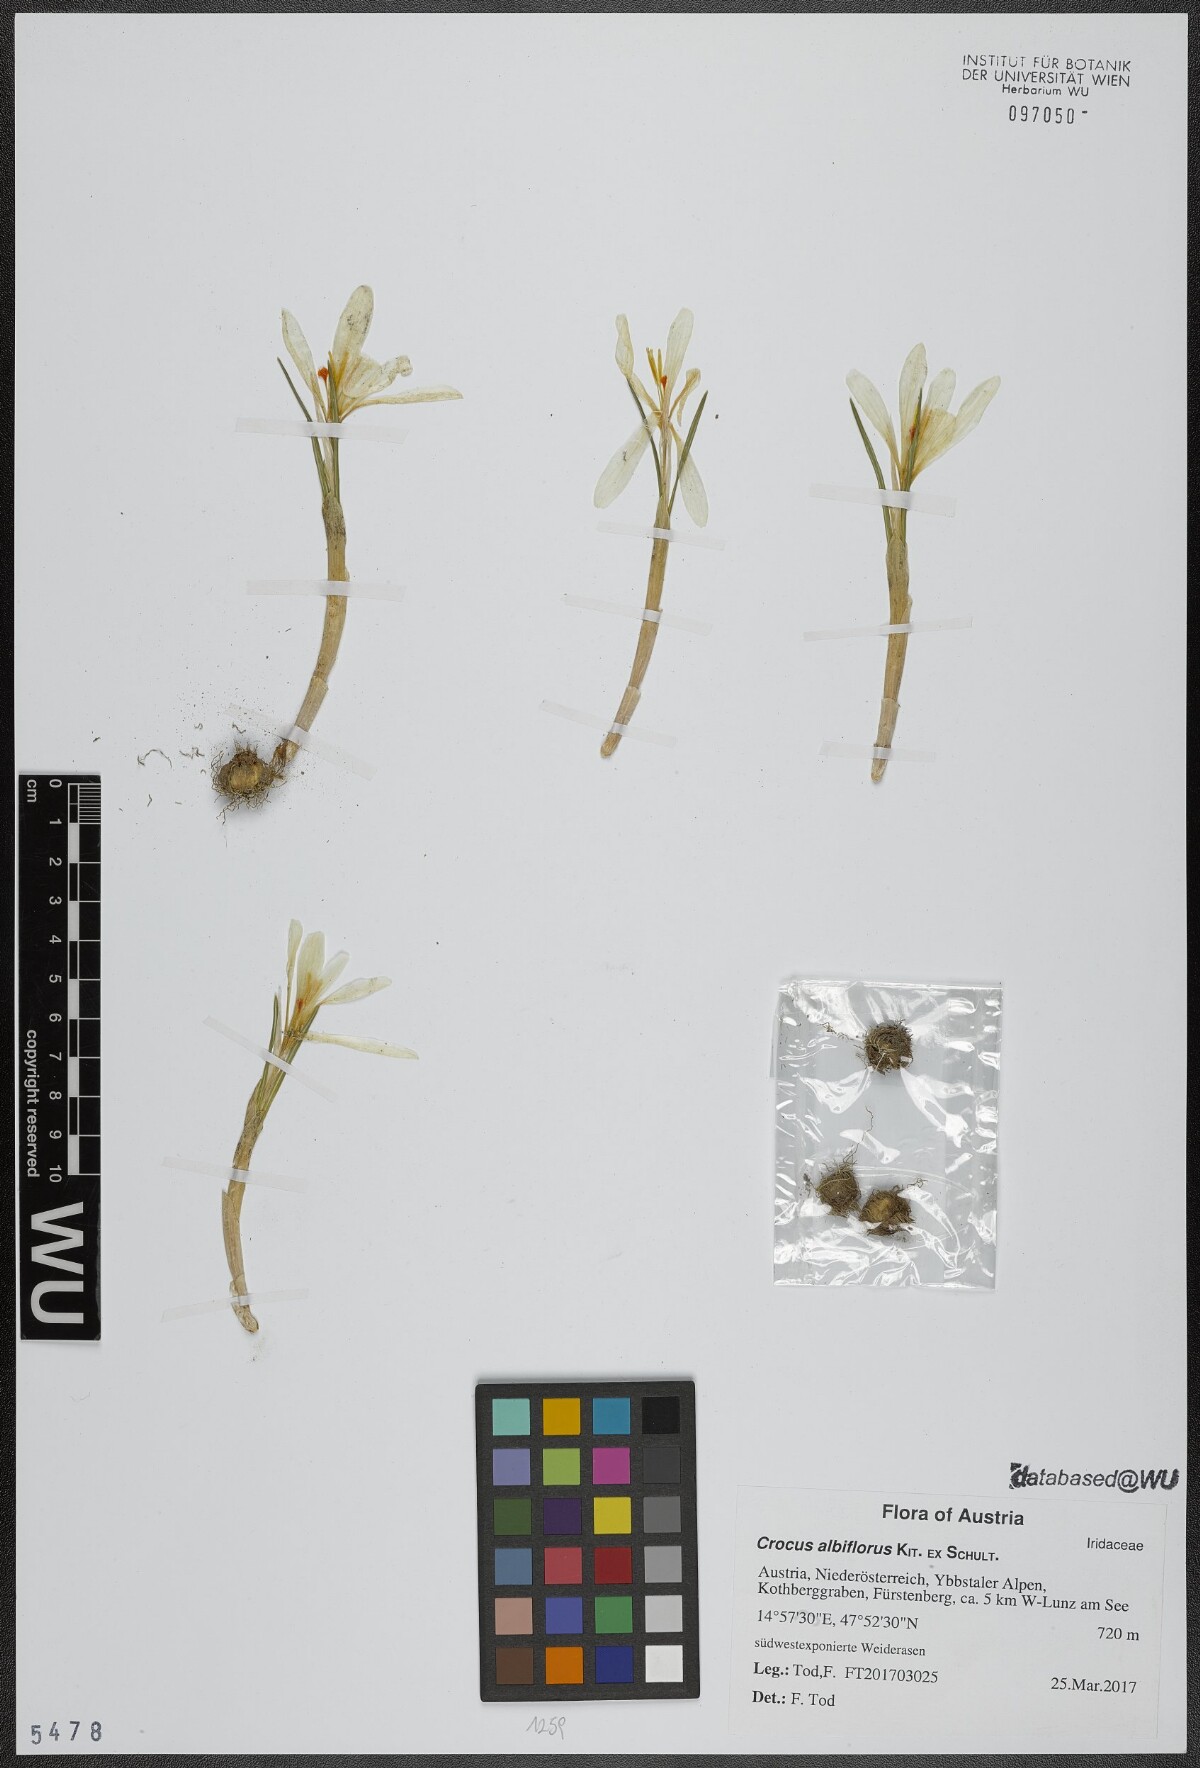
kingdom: Plantae
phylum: Tracheophyta
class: Liliopsida
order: Asparagales
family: Iridaceae
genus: Crocus
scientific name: Crocus vernus
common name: Spring crocus
